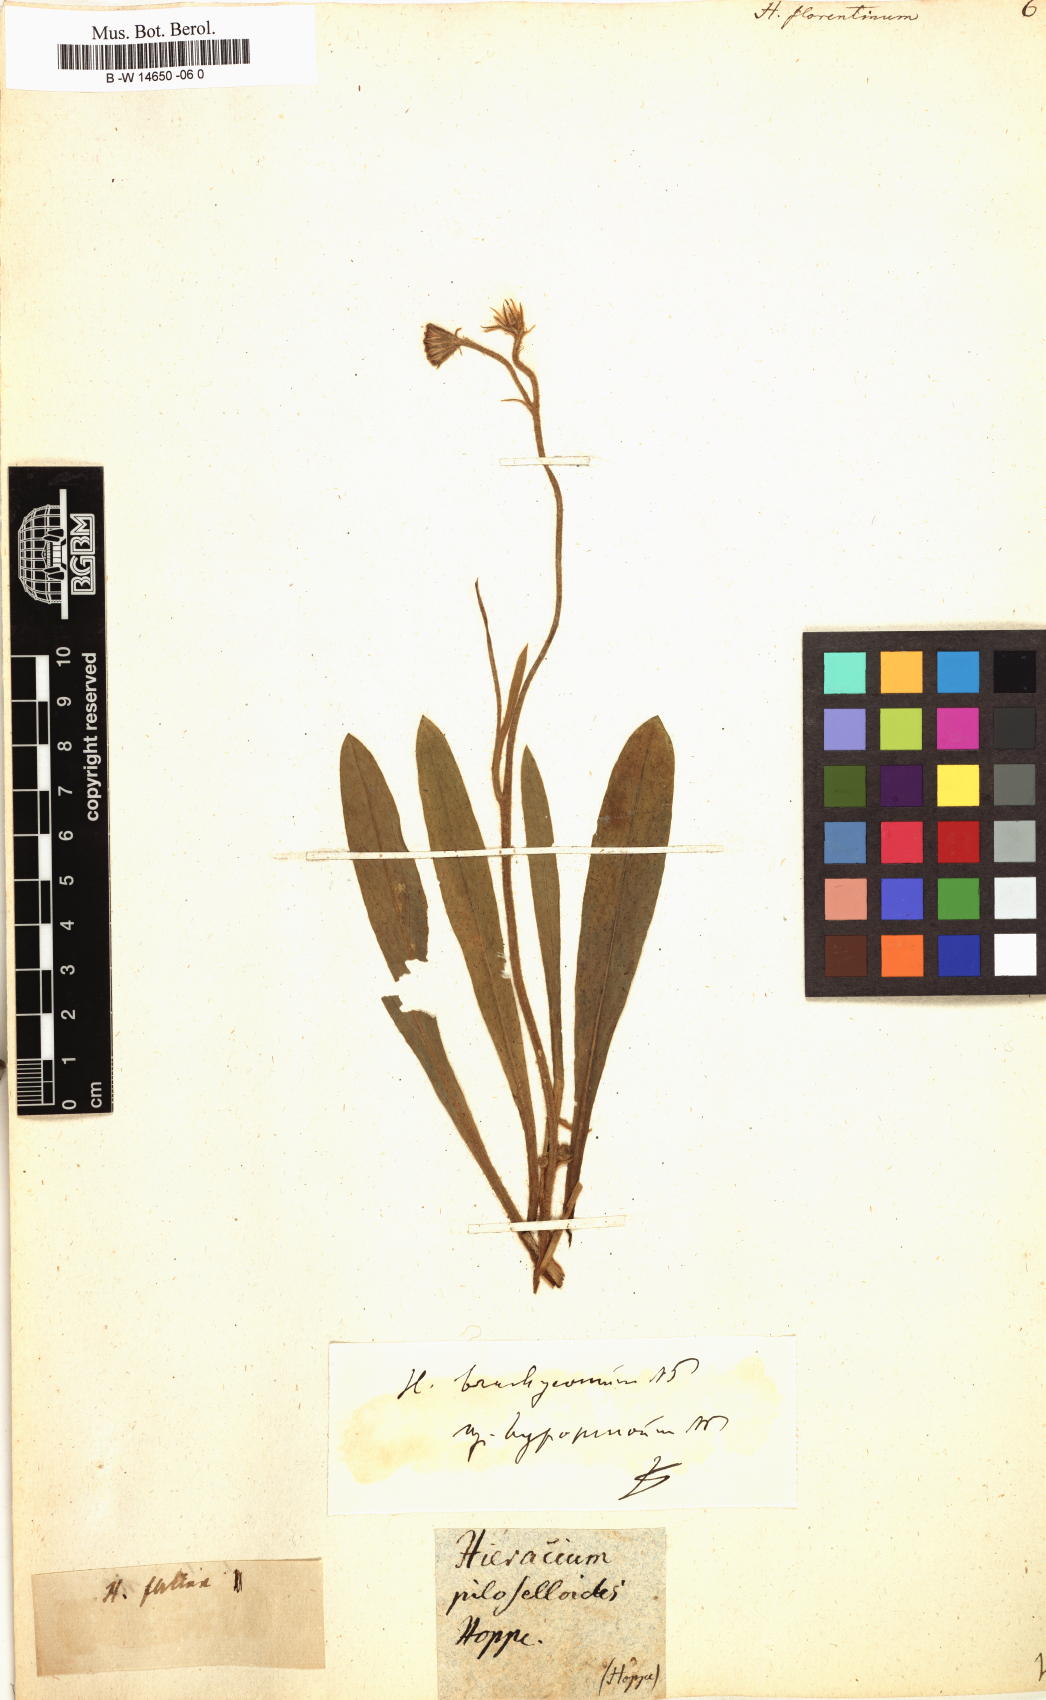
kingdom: Plantae
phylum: Tracheophyta
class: Magnoliopsida
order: Asterales
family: Asteraceae
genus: Hieracium
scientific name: Hieracium florentinum
